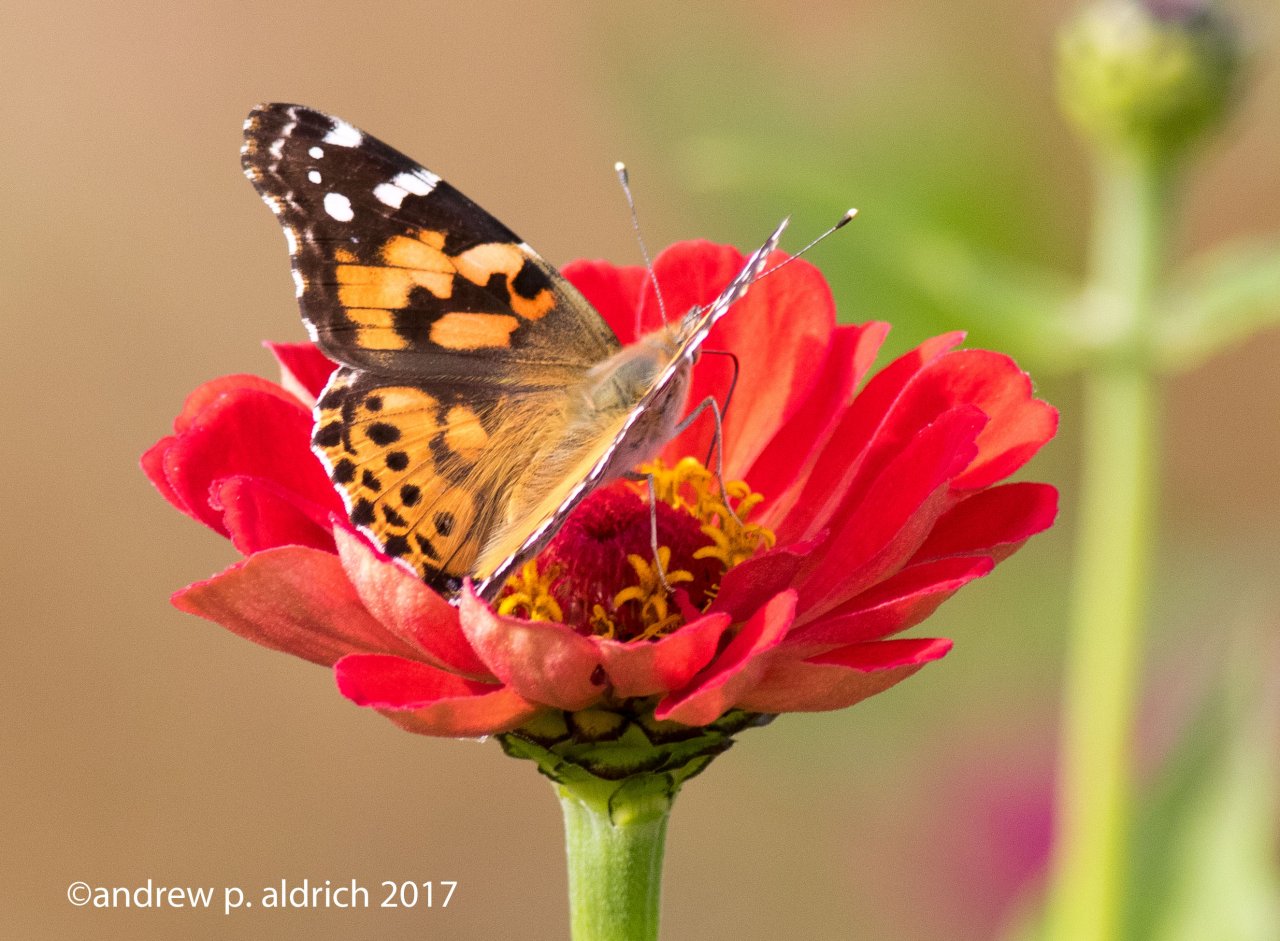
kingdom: Animalia
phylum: Arthropoda
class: Insecta
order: Lepidoptera
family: Nymphalidae
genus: Vanessa
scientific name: Vanessa cardui
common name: Painted Lady
